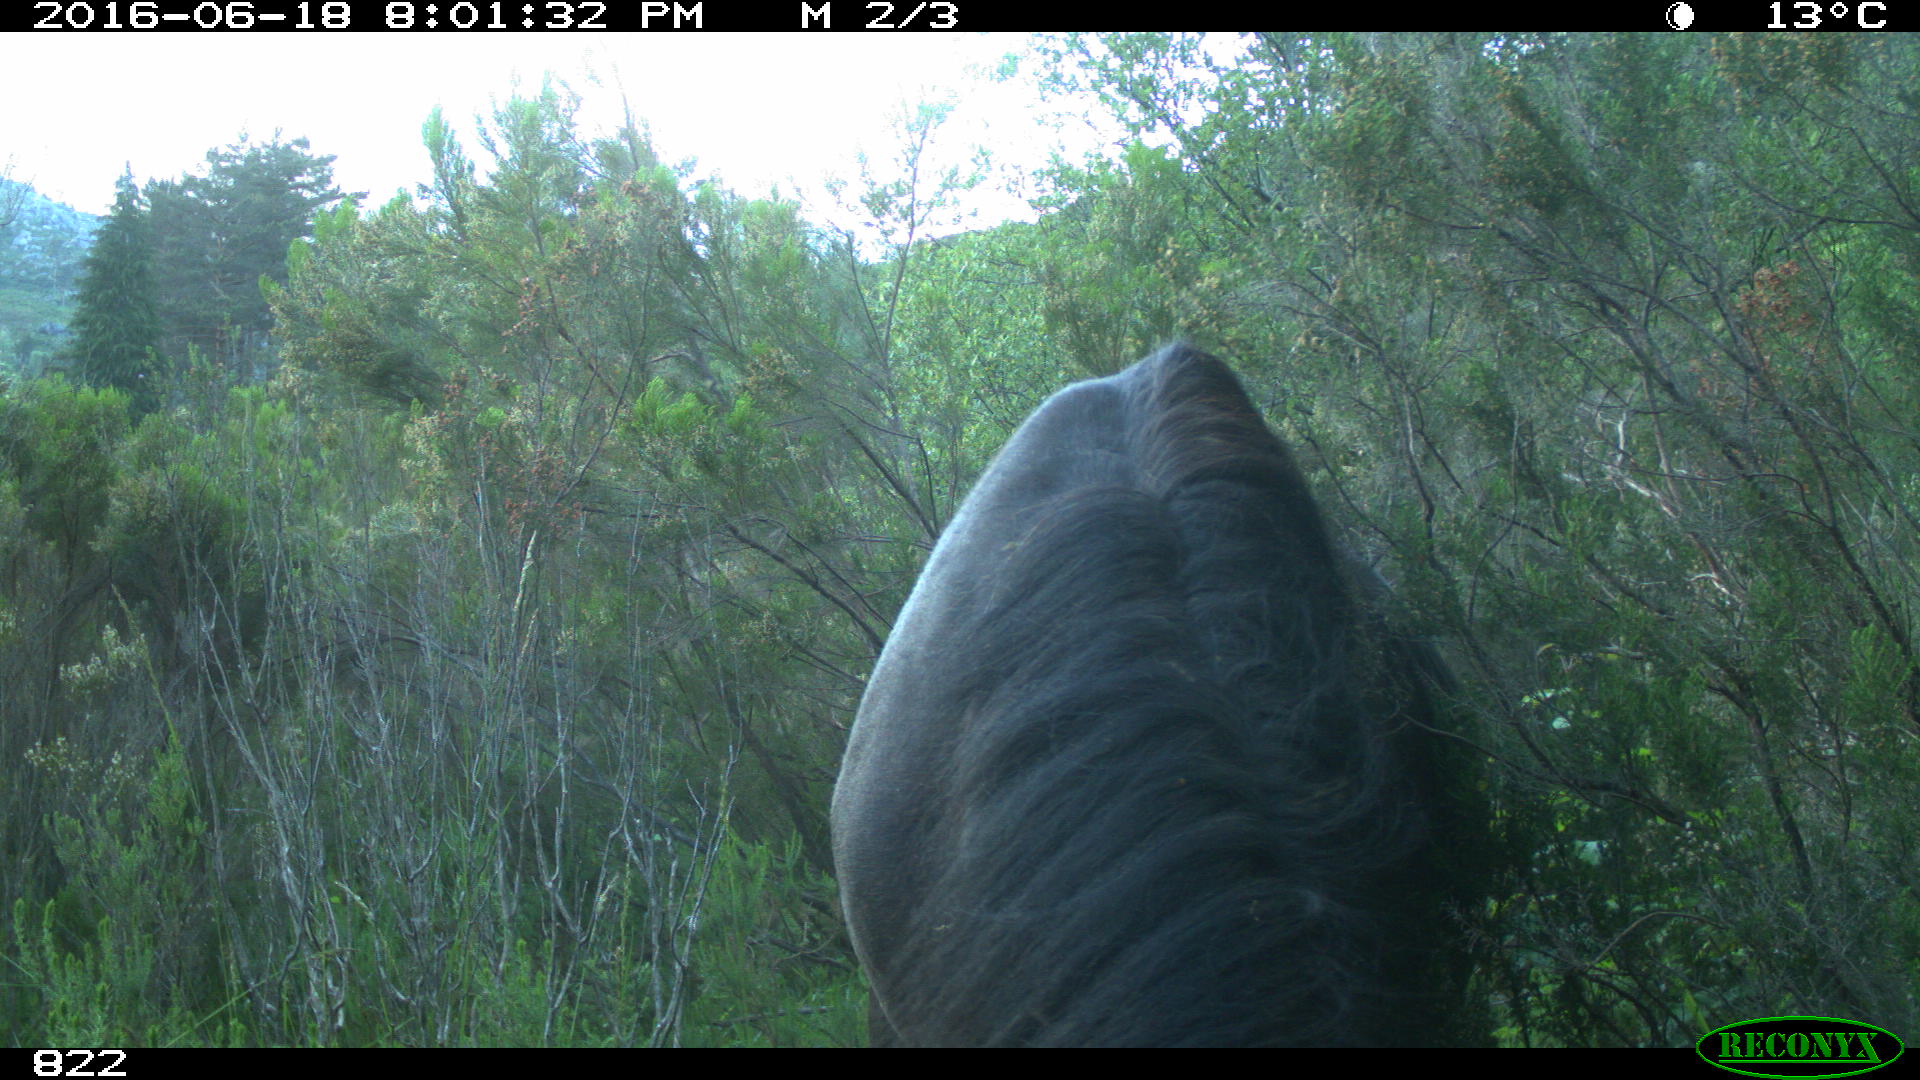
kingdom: Animalia
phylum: Chordata
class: Mammalia
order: Perissodactyla
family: Equidae
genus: Equus
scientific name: Equus caballus
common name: Horse
